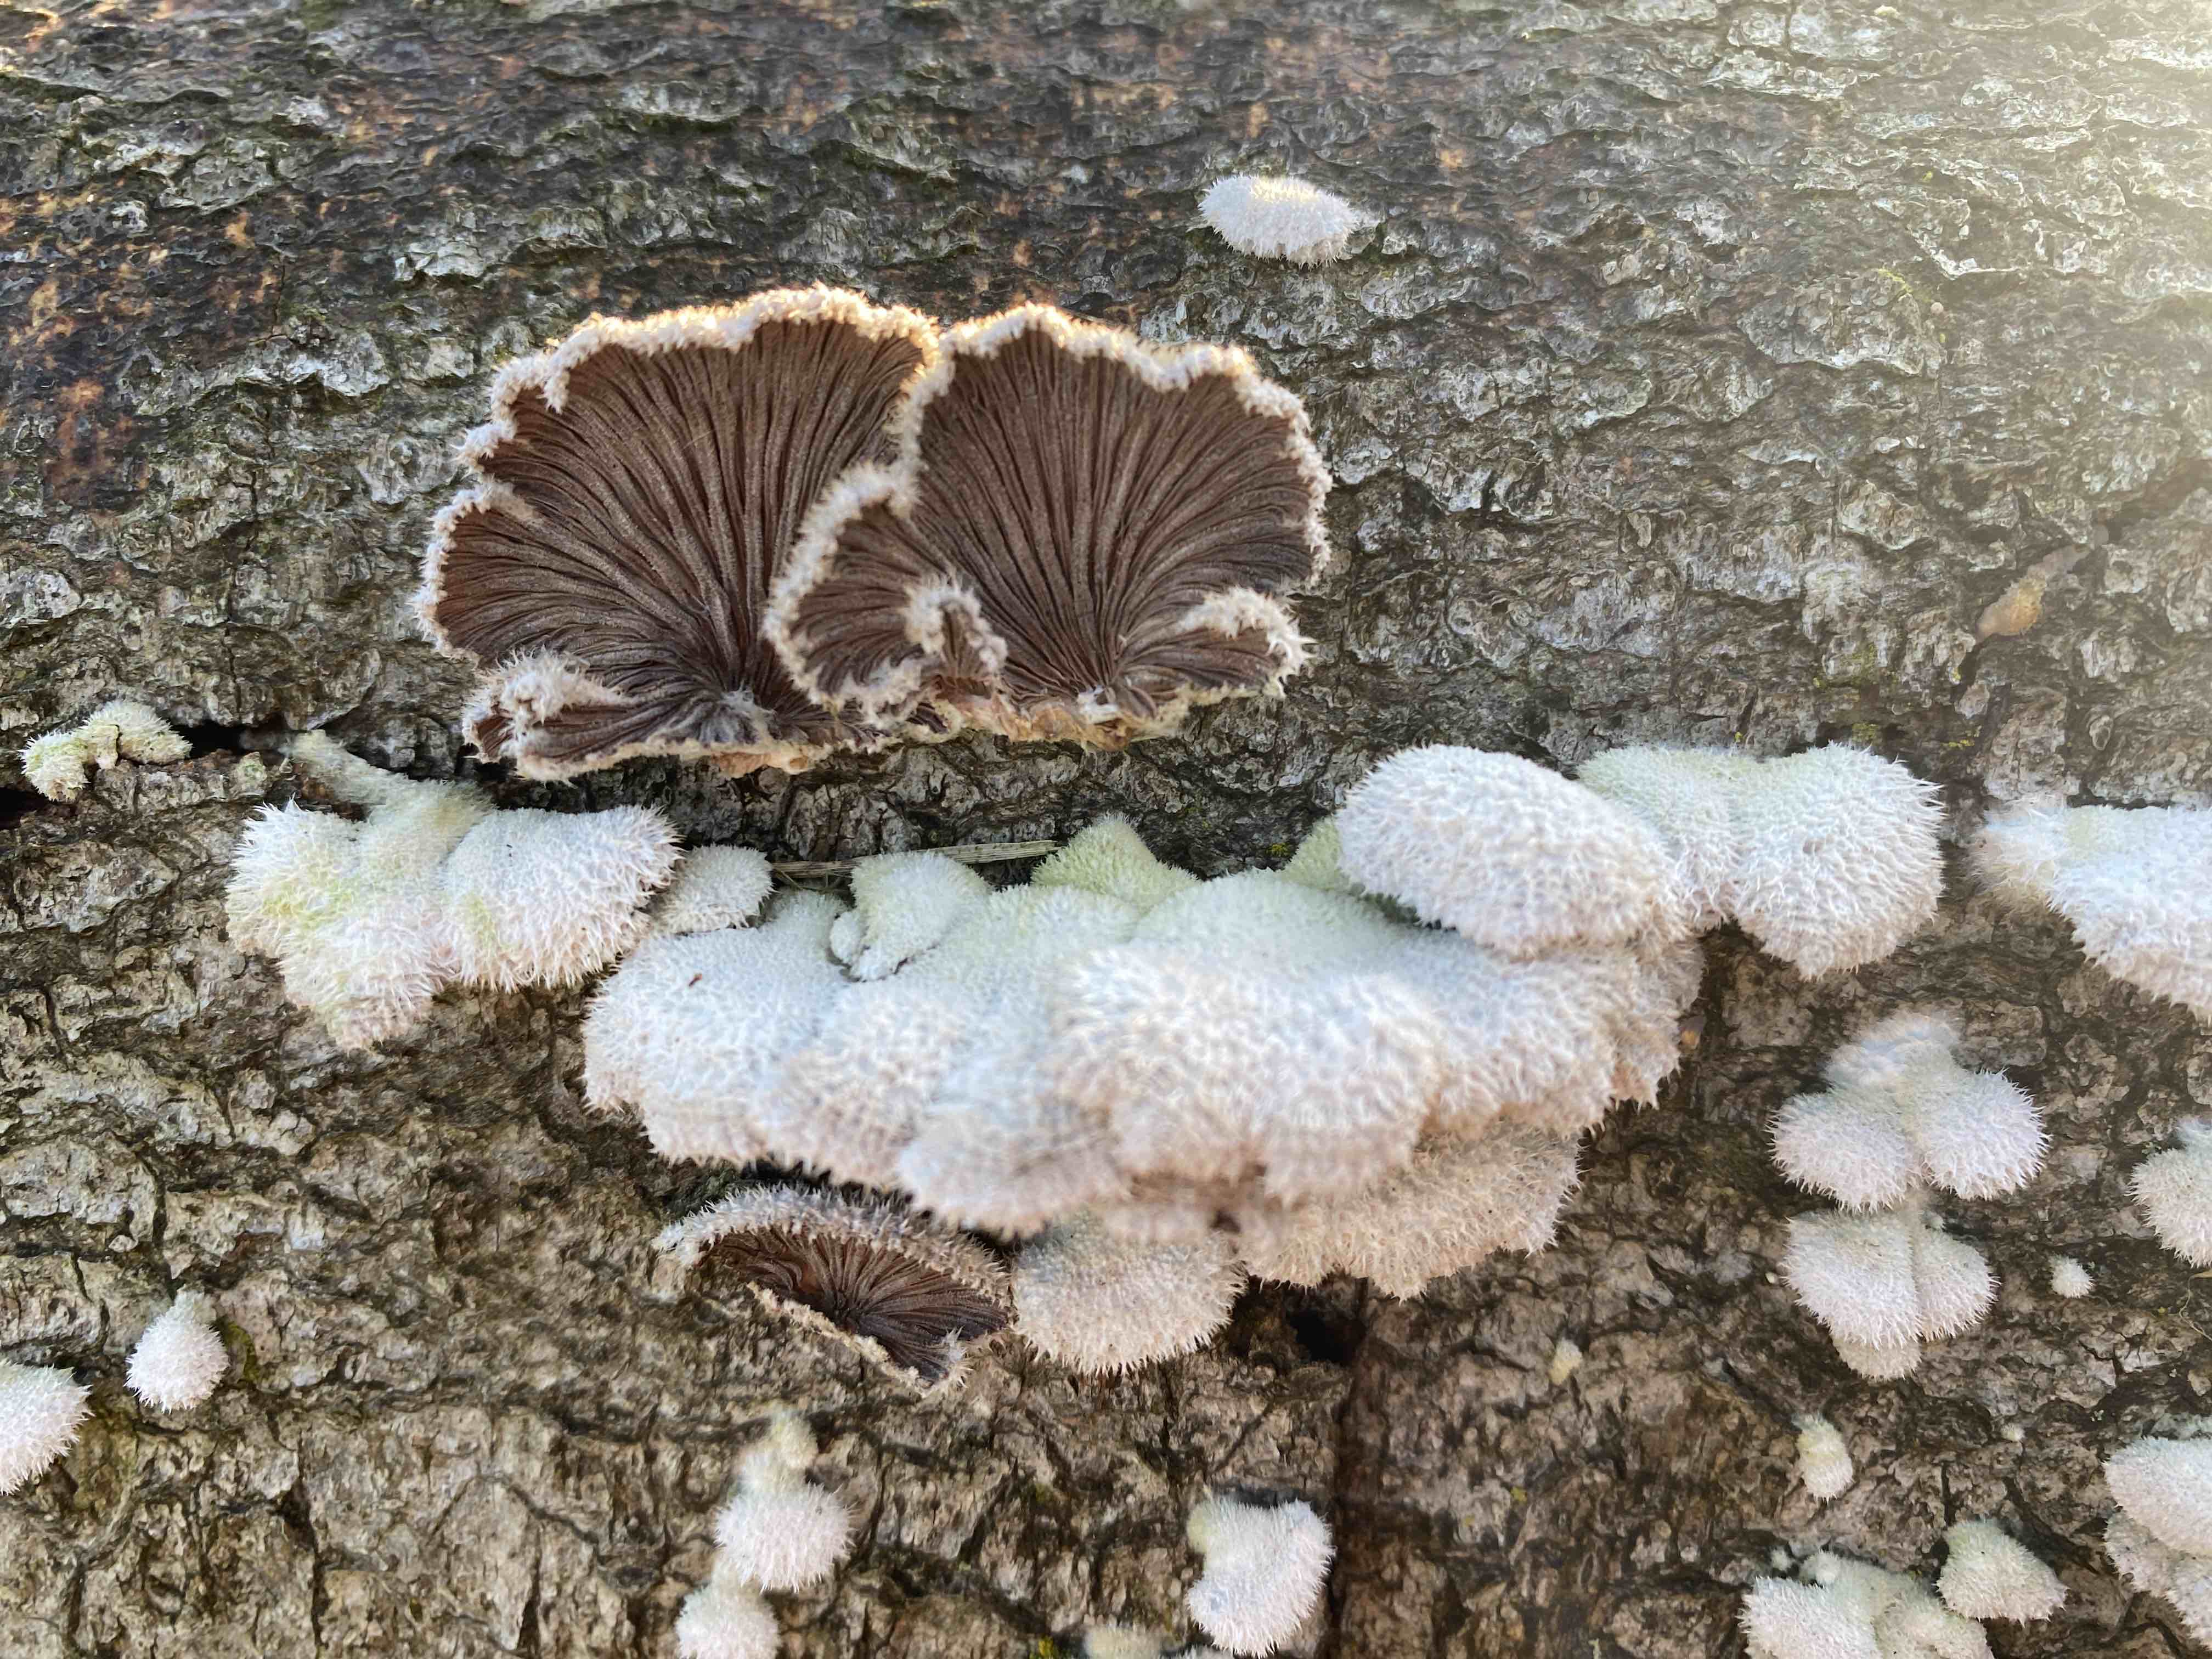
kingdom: Fungi
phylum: Basidiomycota
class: Agaricomycetes
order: Agaricales
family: Schizophyllaceae
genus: Schizophyllum
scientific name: Schizophyllum commune
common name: kløvblad
